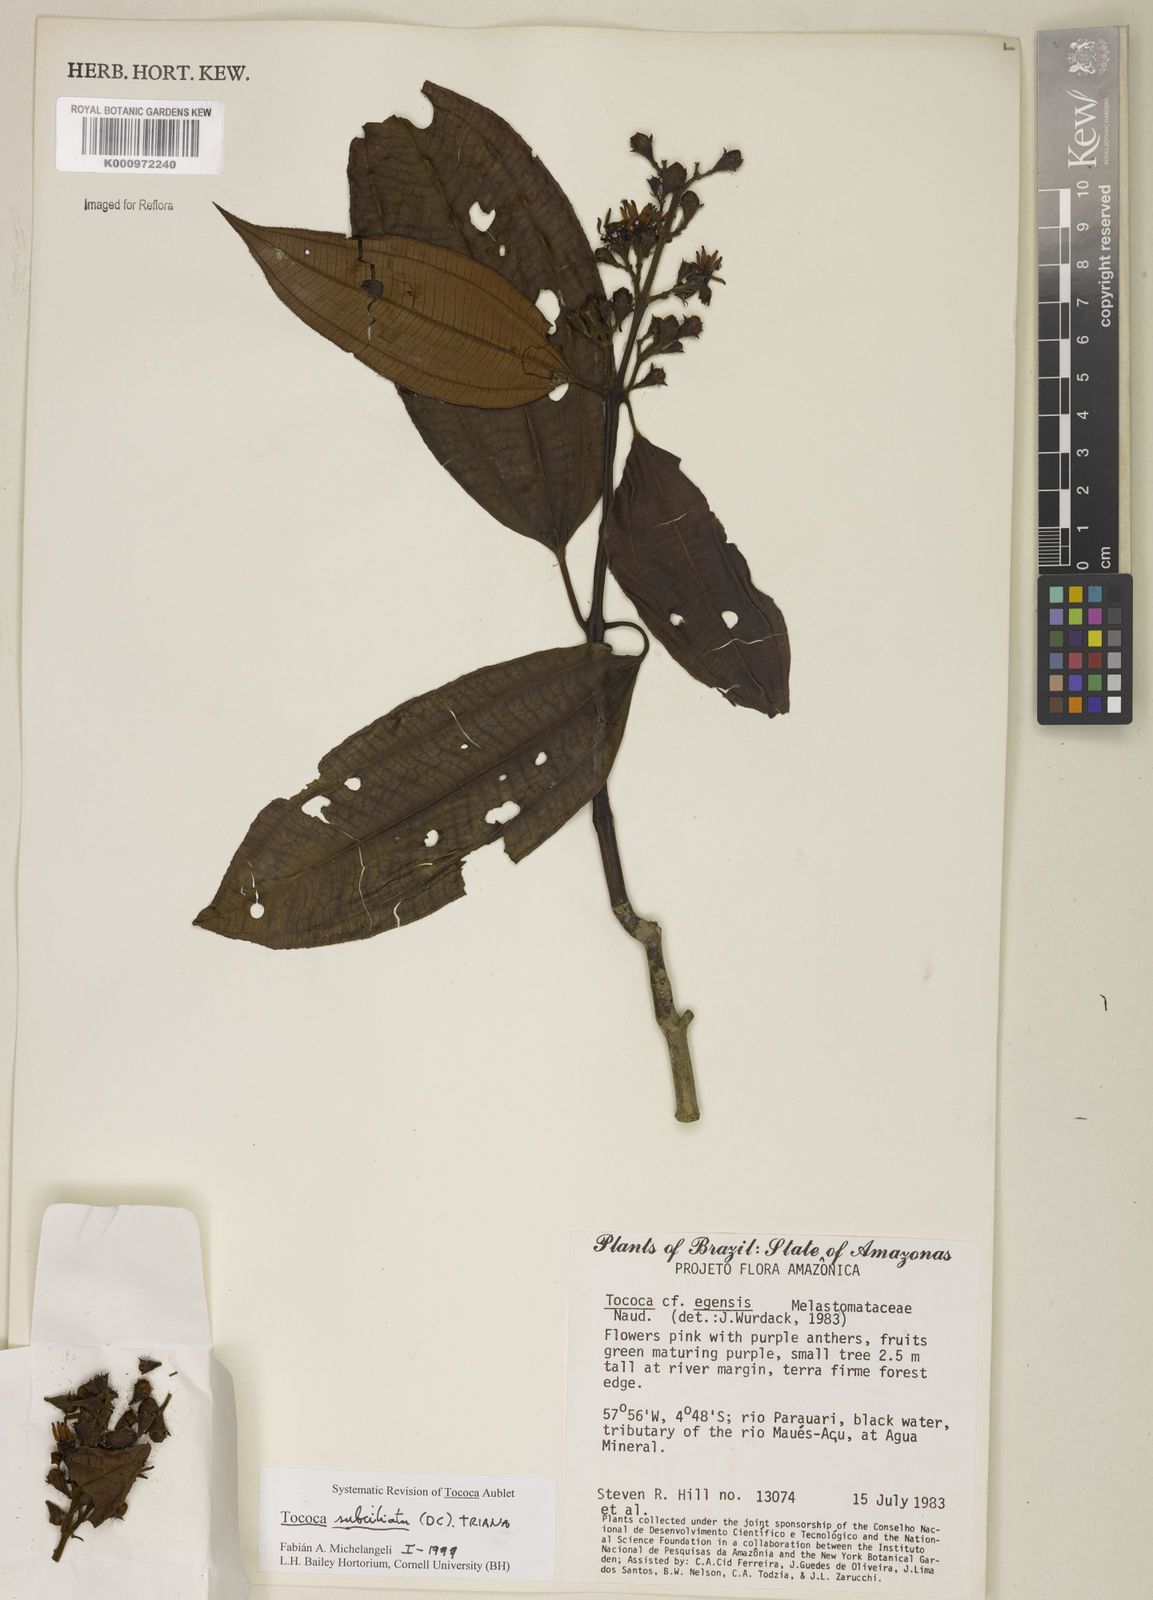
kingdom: Plantae
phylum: Tracheophyta
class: Magnoliopsida
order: Myrtales
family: Melastomataceae
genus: Miconia
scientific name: Miconia subciliata
